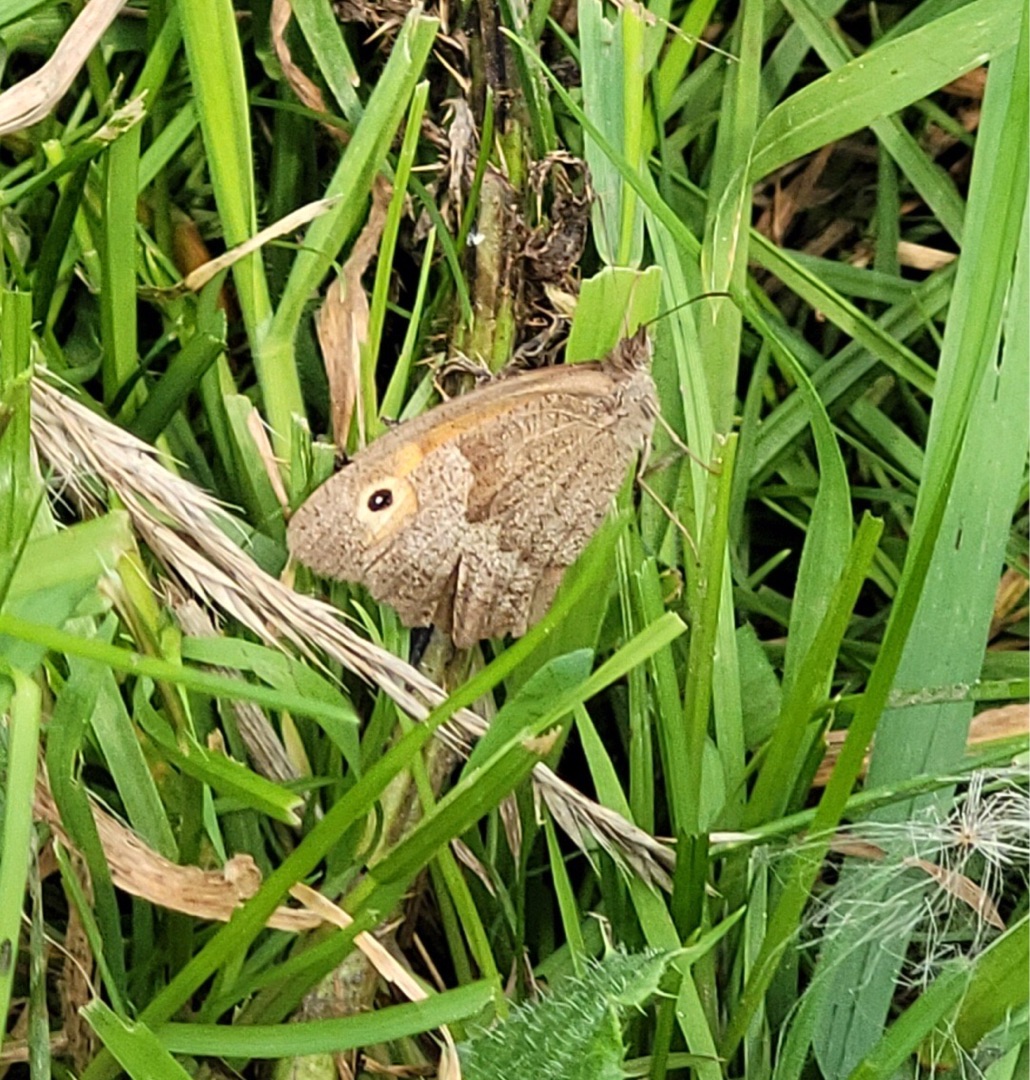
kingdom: Animalia
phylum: Arthropoda
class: Insecta
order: Lepidoptera
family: Nymphalidae
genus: Maniola
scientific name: Maniola jurtina
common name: Græsrandøje
